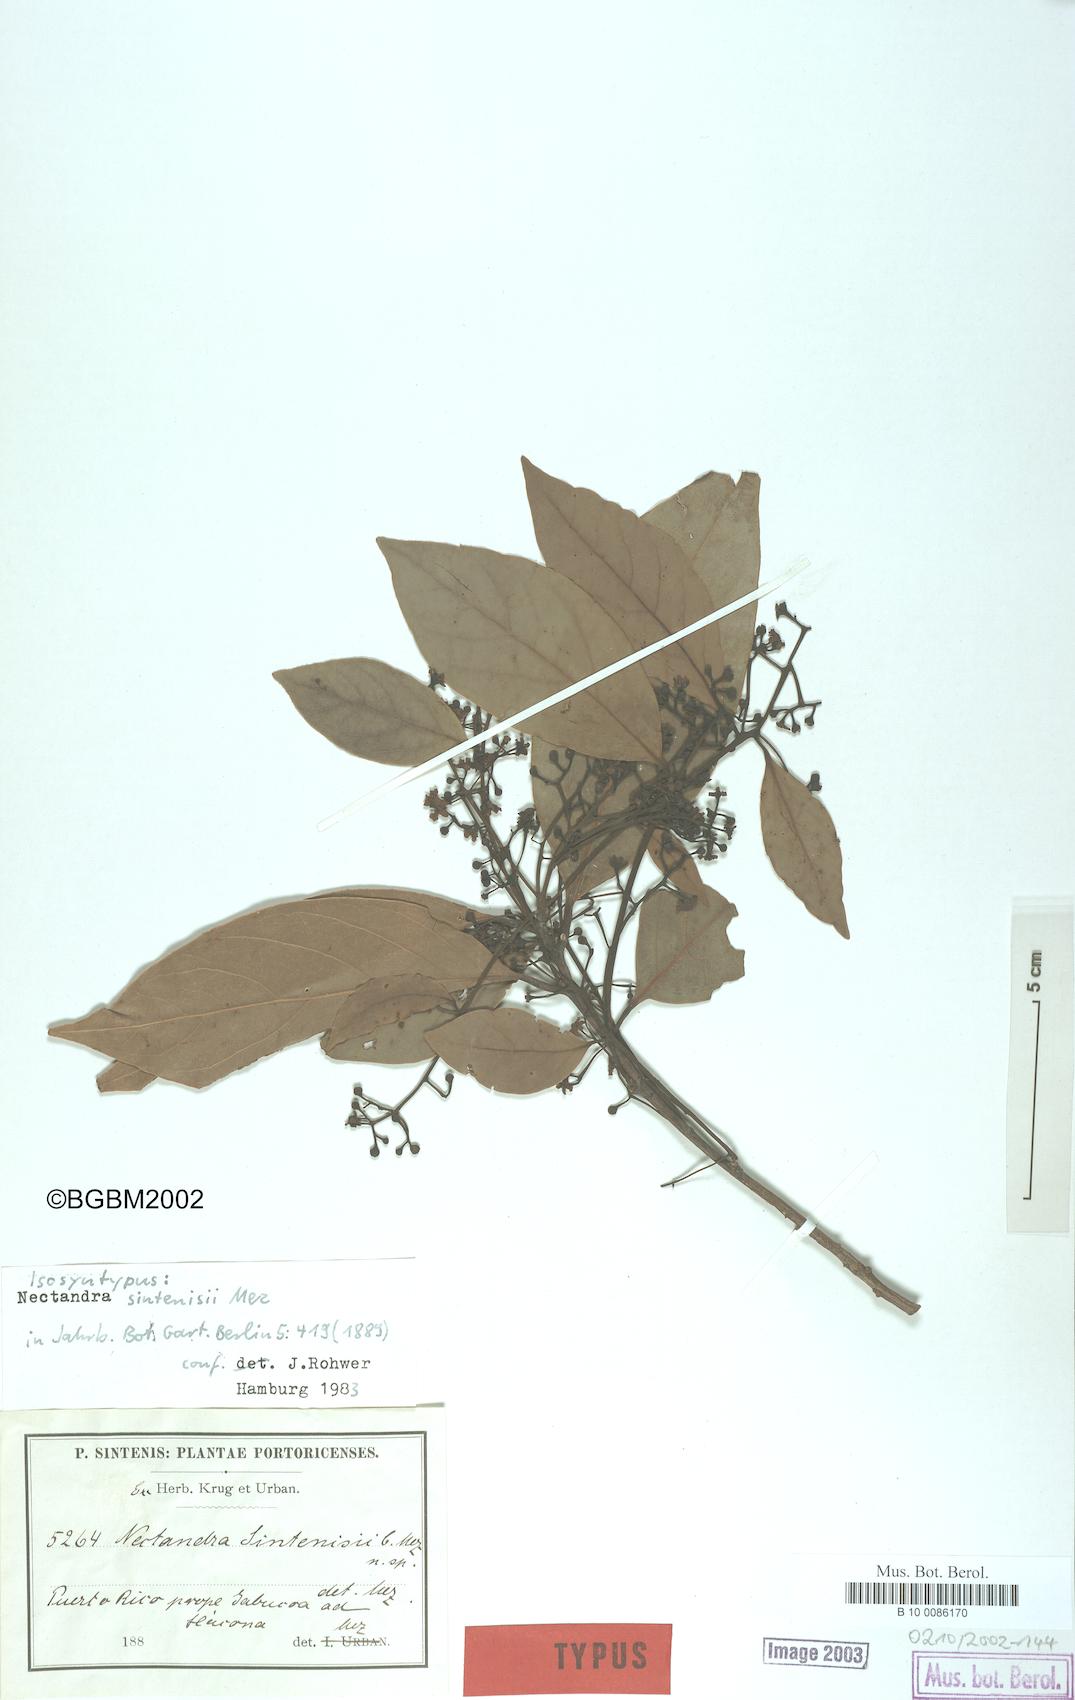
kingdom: Plantae
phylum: Tracheophyta
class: Magnoliopsida
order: Laurales
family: Lauraceae
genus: Nectandra
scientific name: Nectandra turbacensis
